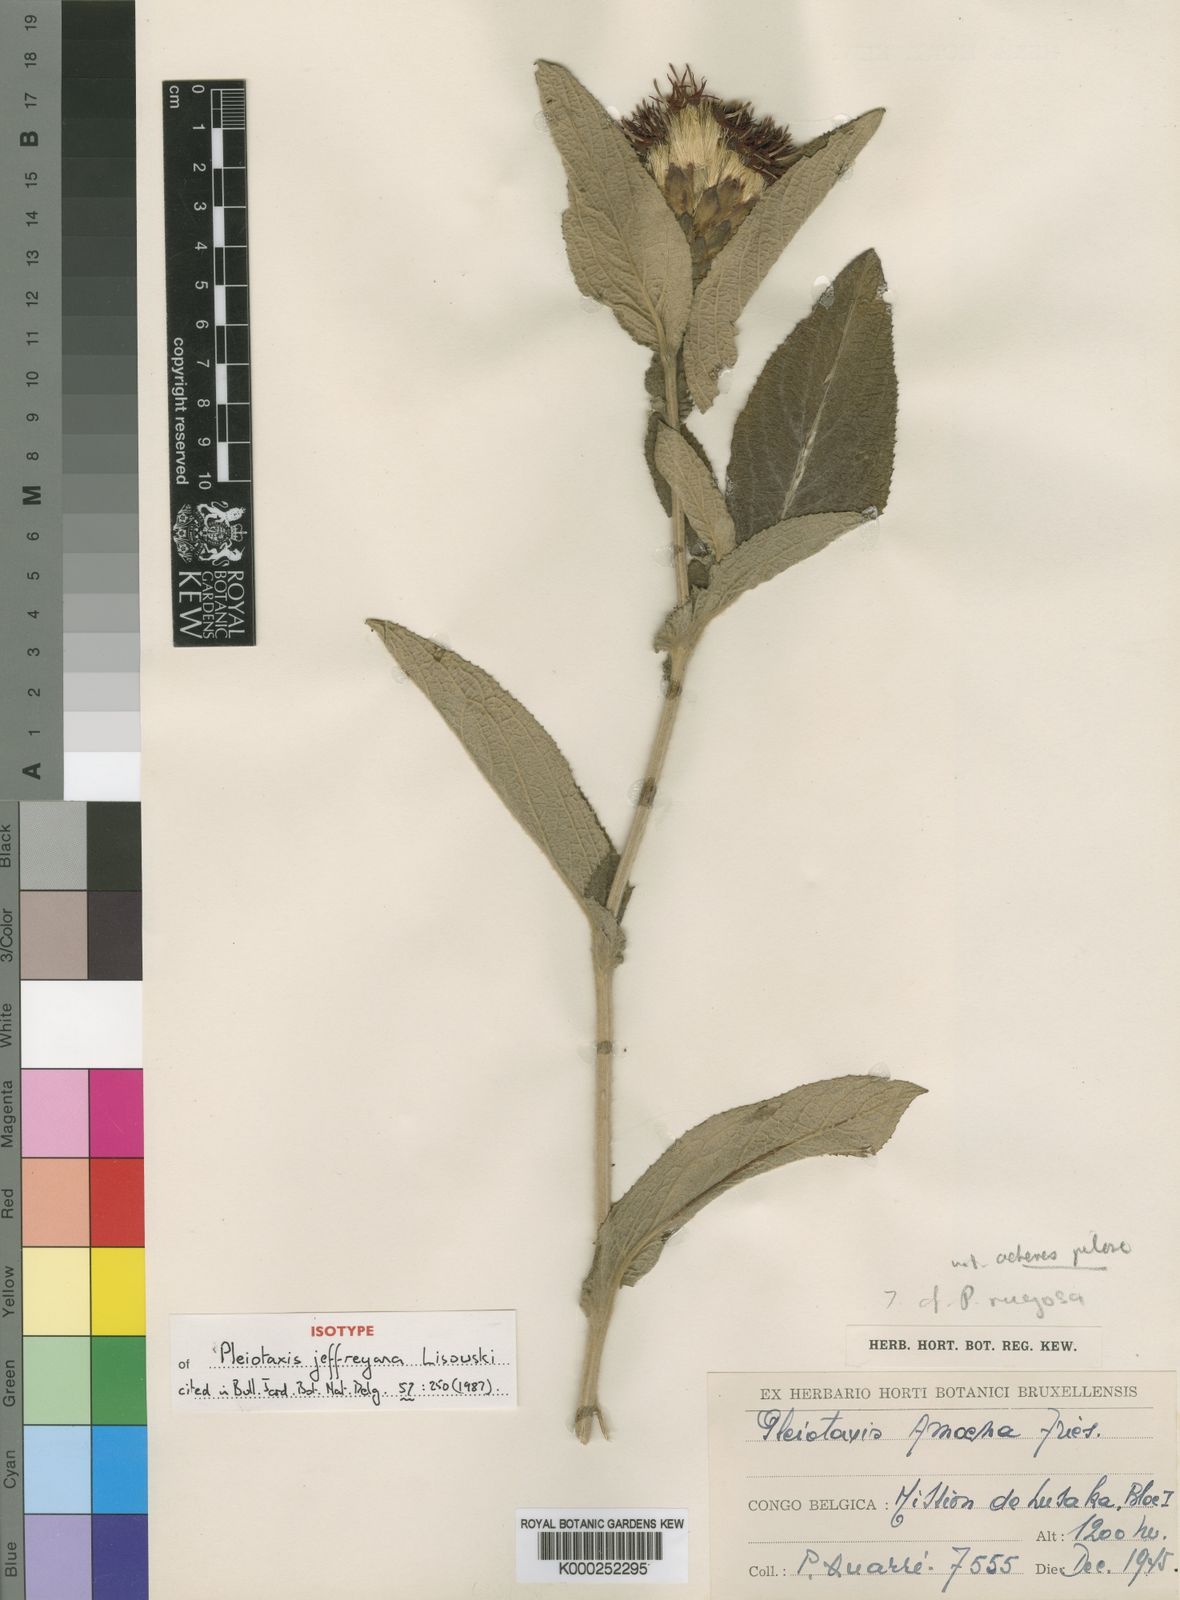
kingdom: Plantae
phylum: Tracheophyta
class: Magnoliopsida
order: Asterales
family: Asteraceae
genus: Pleiotaxis
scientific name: Pleiotaxis jeffreyana
